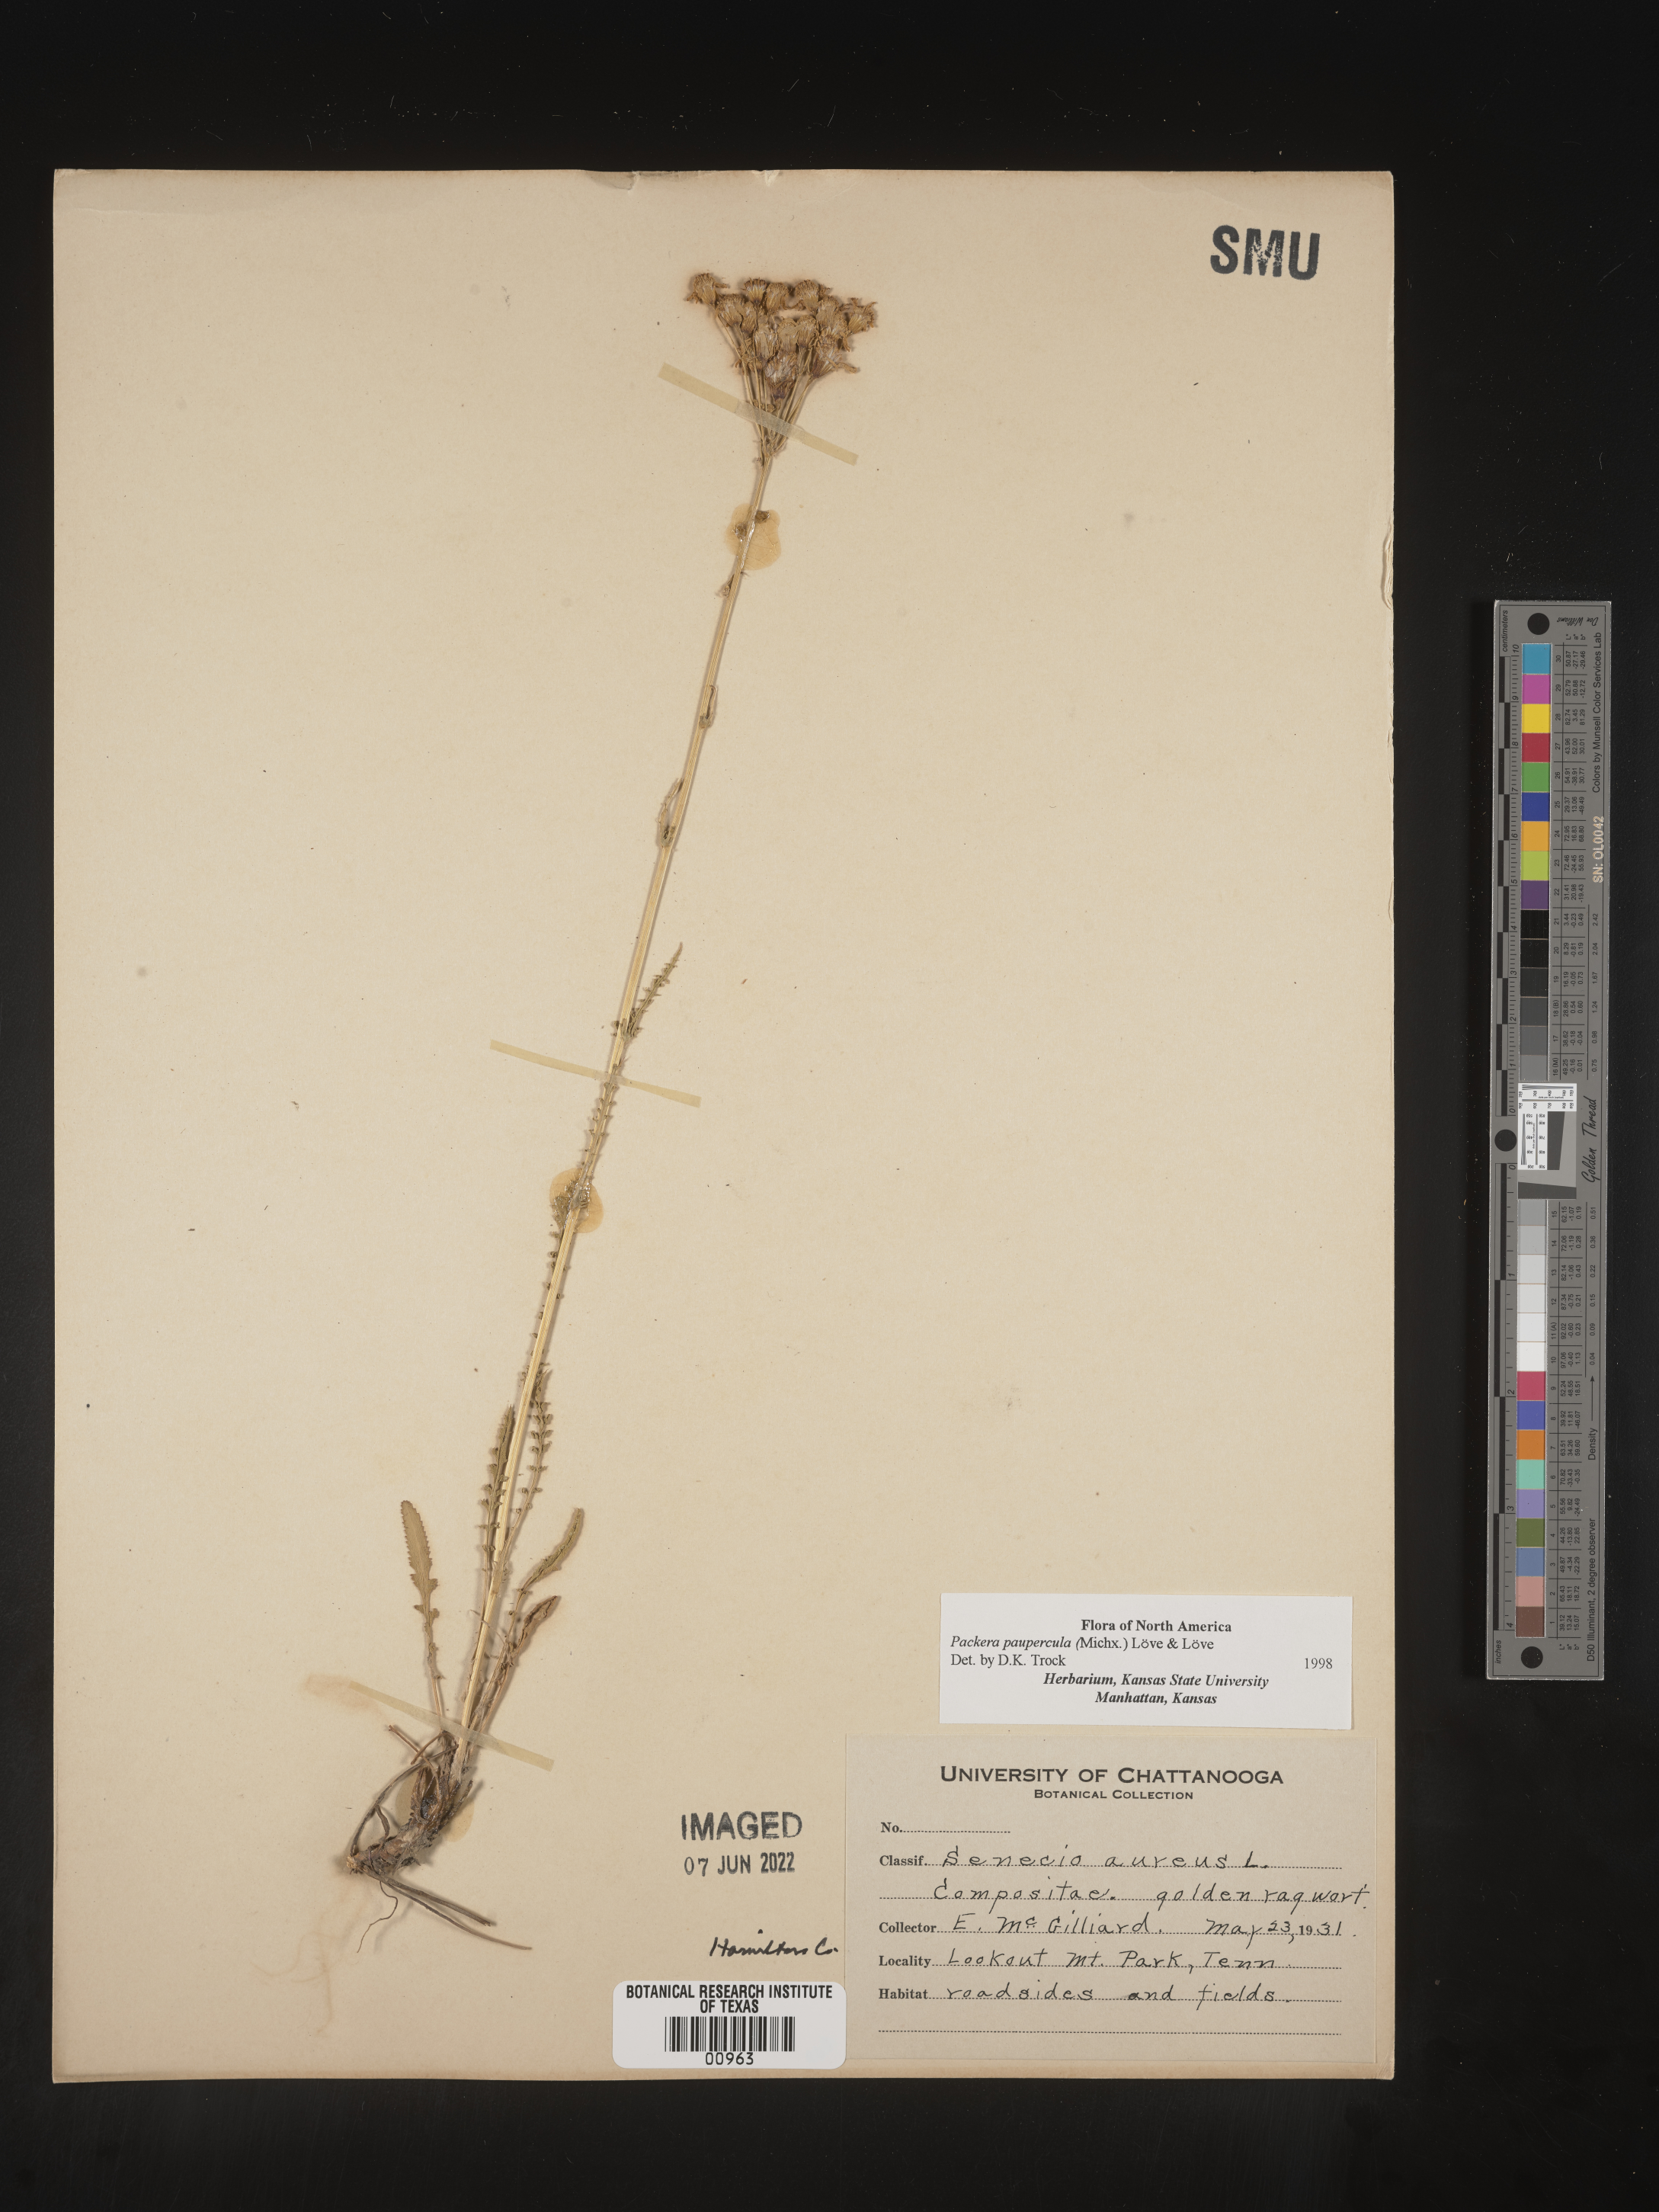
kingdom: Plantae
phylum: Tracheophyta
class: Magnoliopsida
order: Asterales
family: Asteraceae
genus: Packera
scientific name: Packera paupercula
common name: Balsam groundsel
